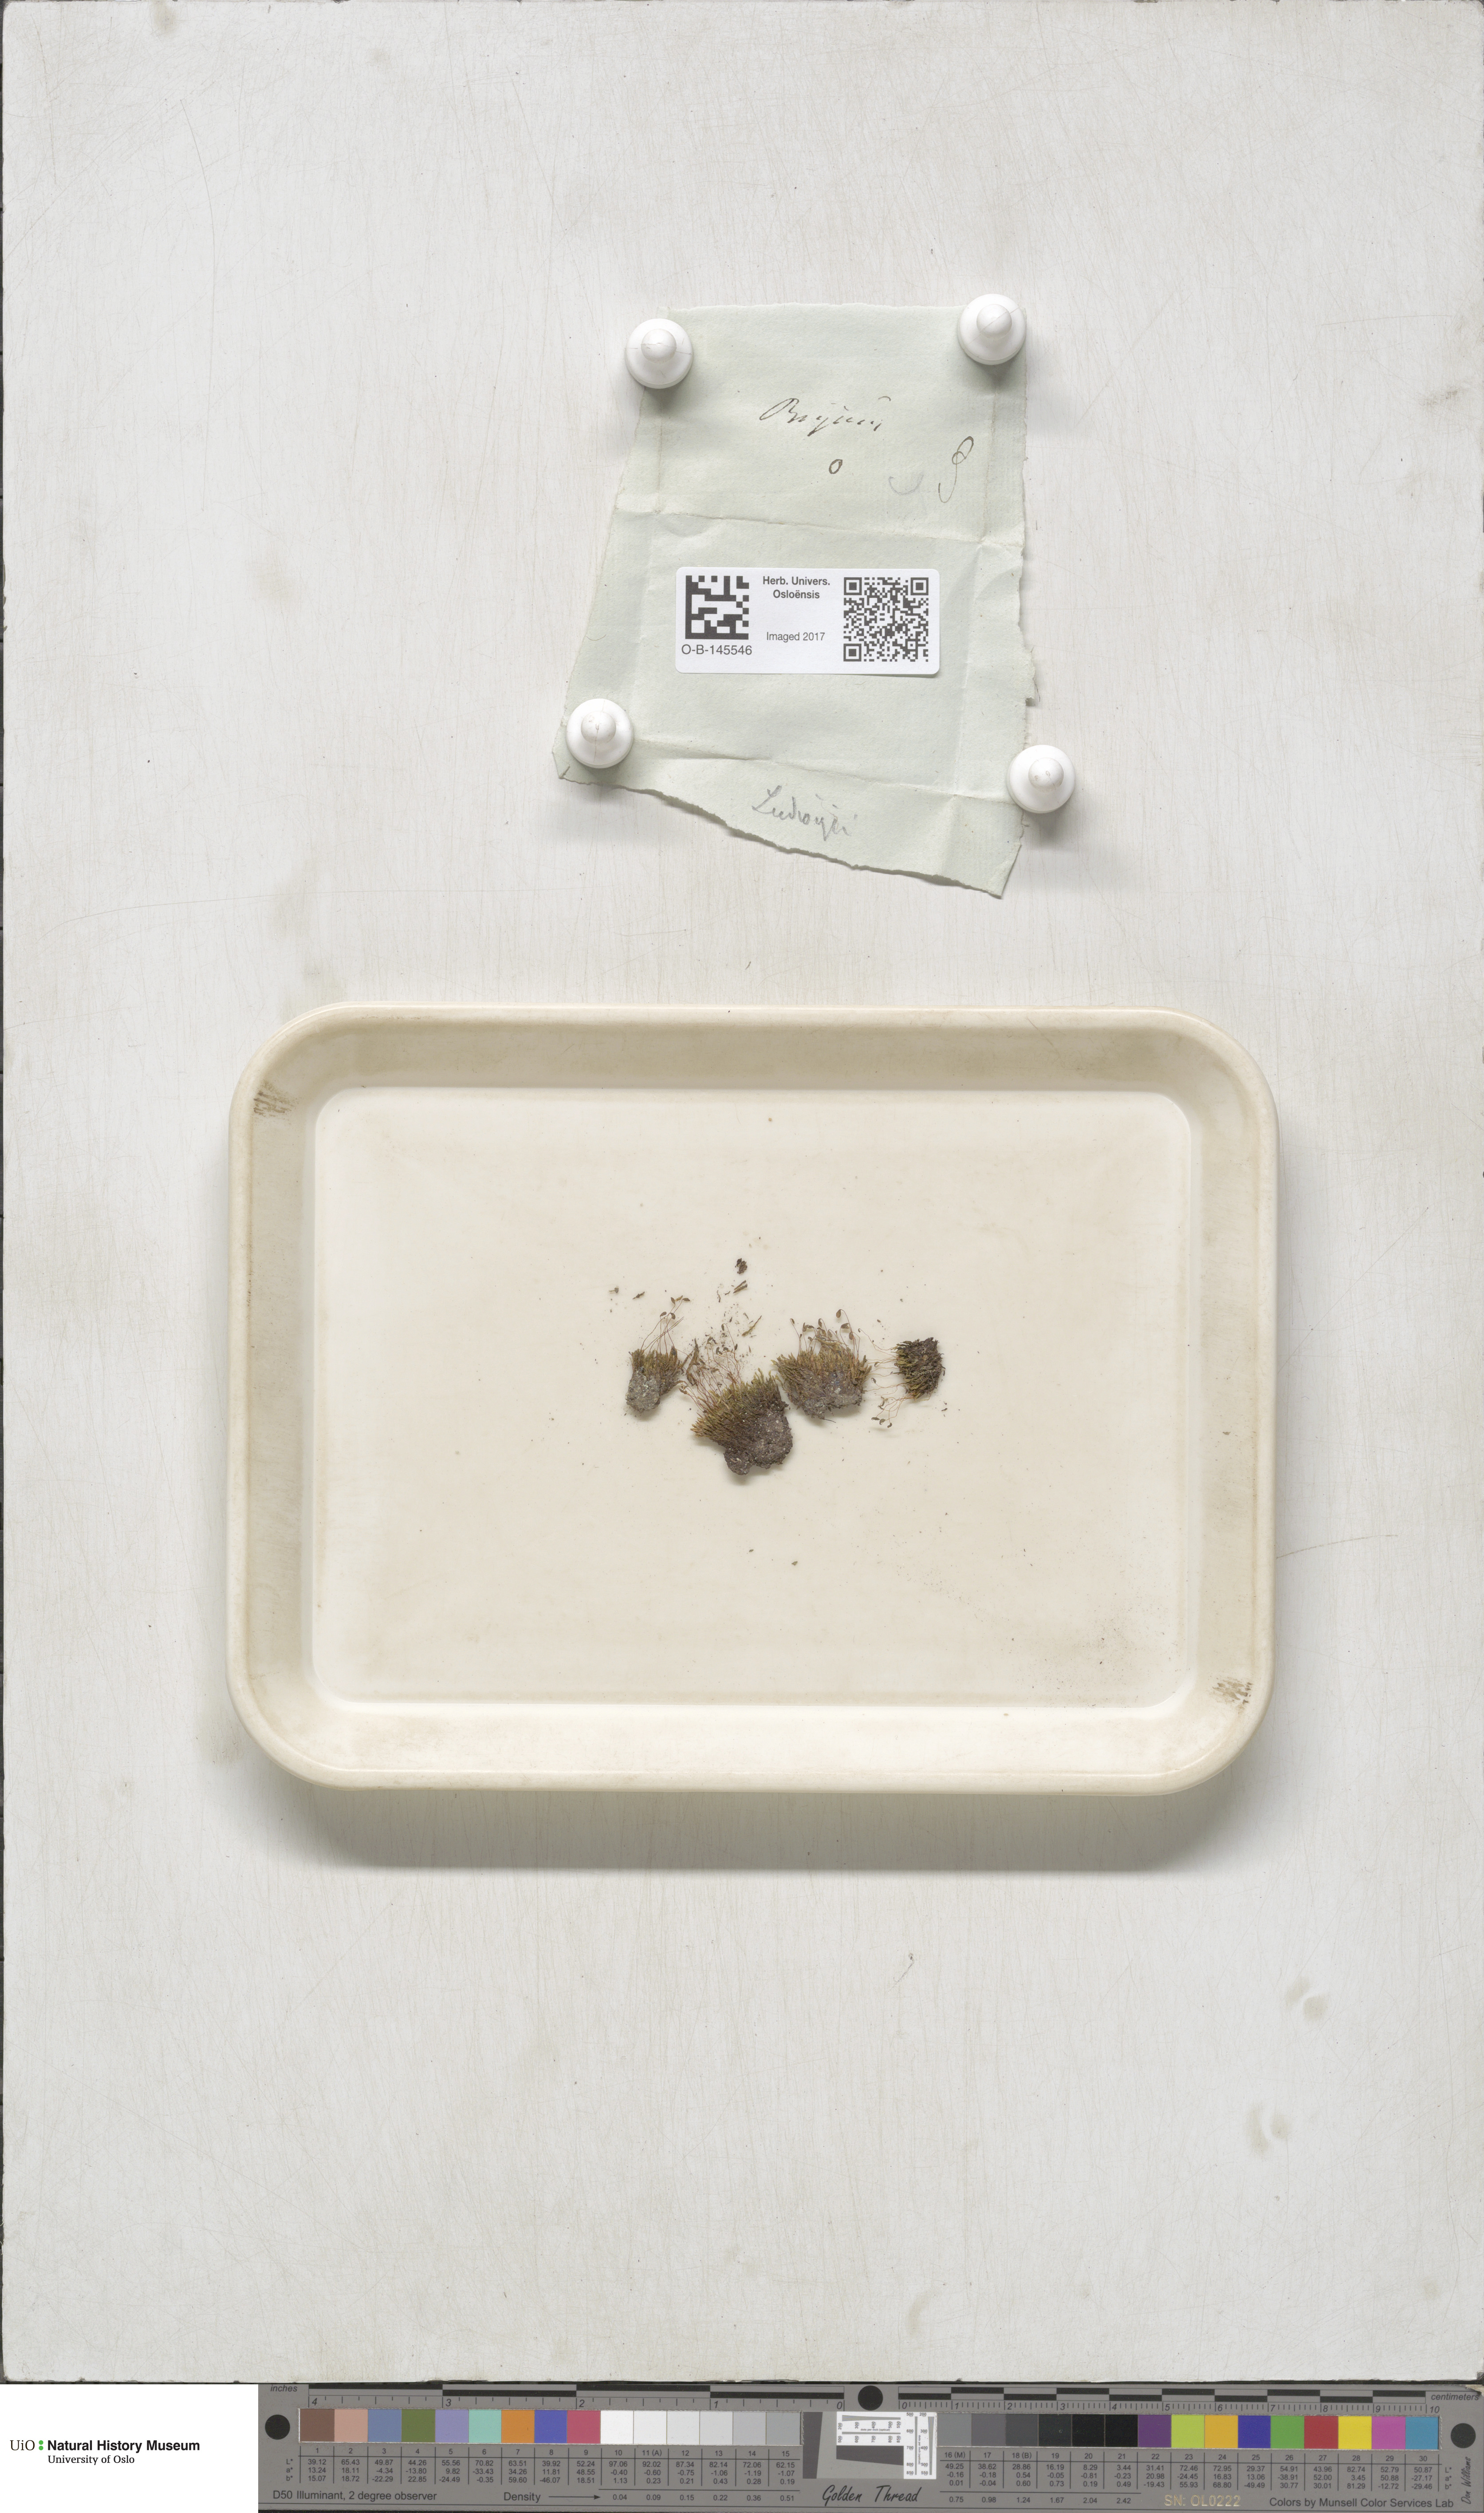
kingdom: Plantae
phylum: Bryophyta
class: Bryopsida
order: Bryales
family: Mniaceae
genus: Pohlia
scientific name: Pohlia ludwigii
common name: Ludwig's thread-moss
